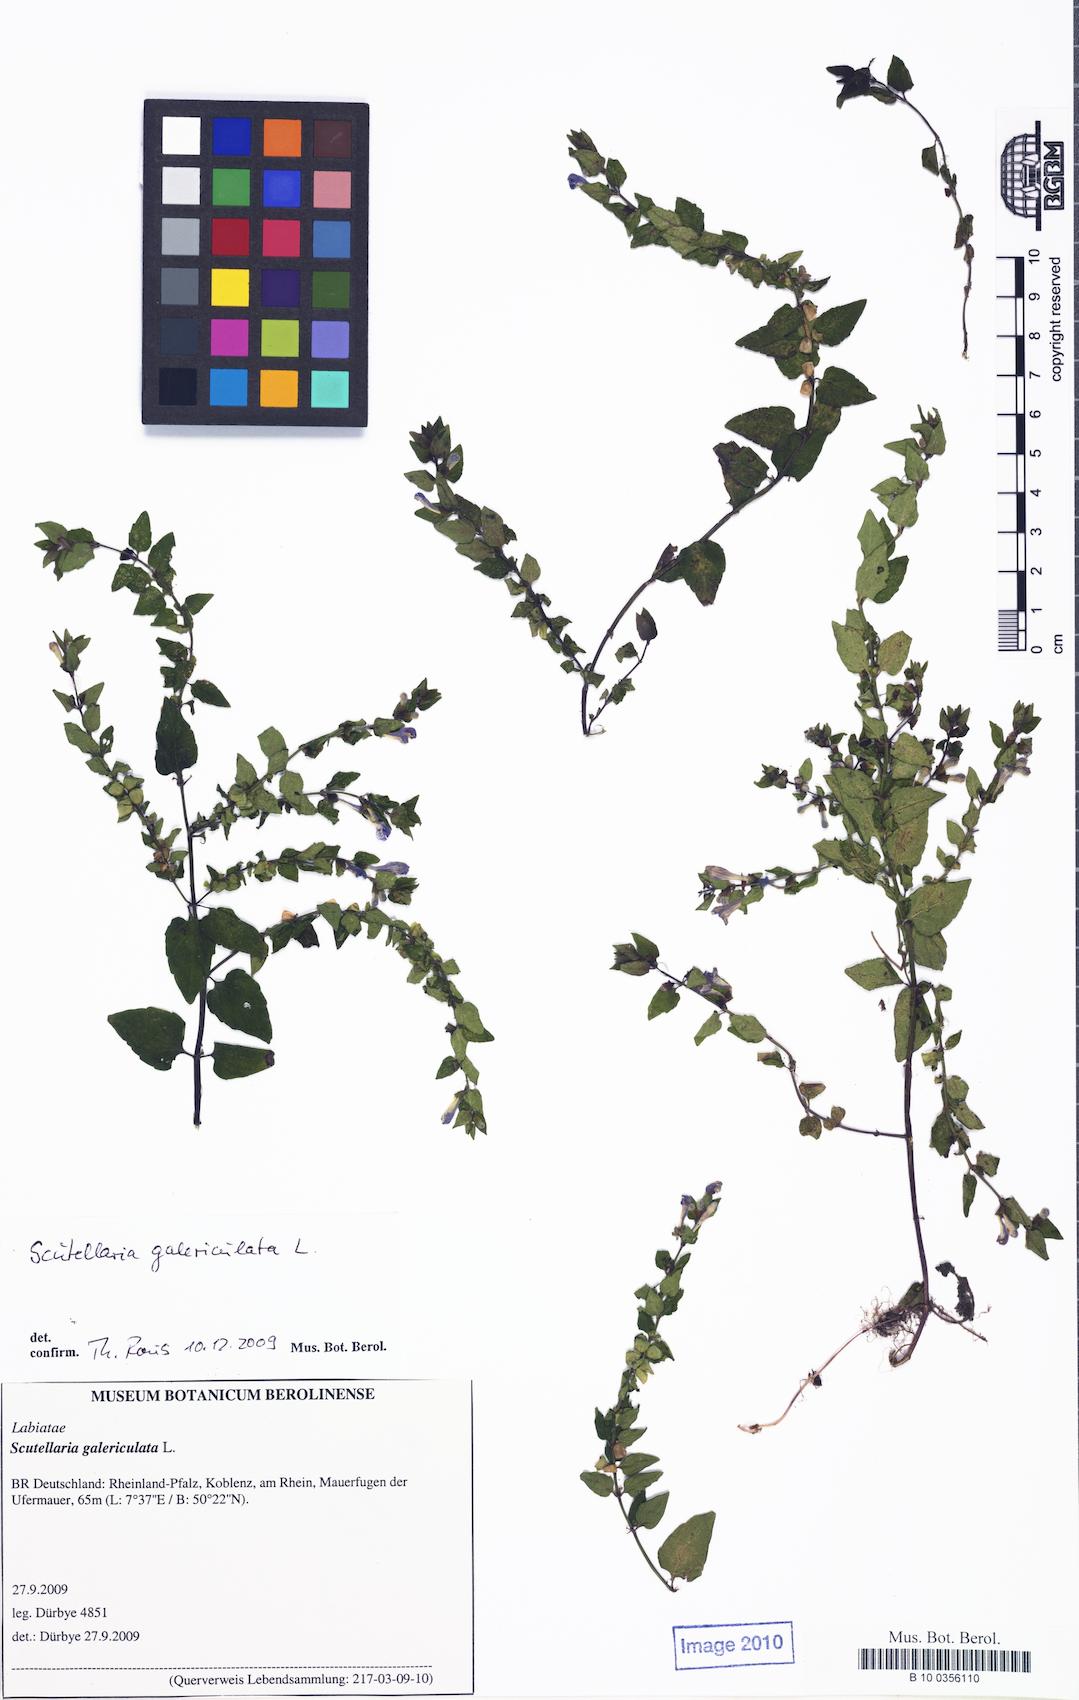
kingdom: Plantae
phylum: Tracheophyta
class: Magnoliopsida
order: Lamiales
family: Lamiaceae
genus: Scutellaria
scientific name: Scutellaria galericulata
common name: Skullcap
